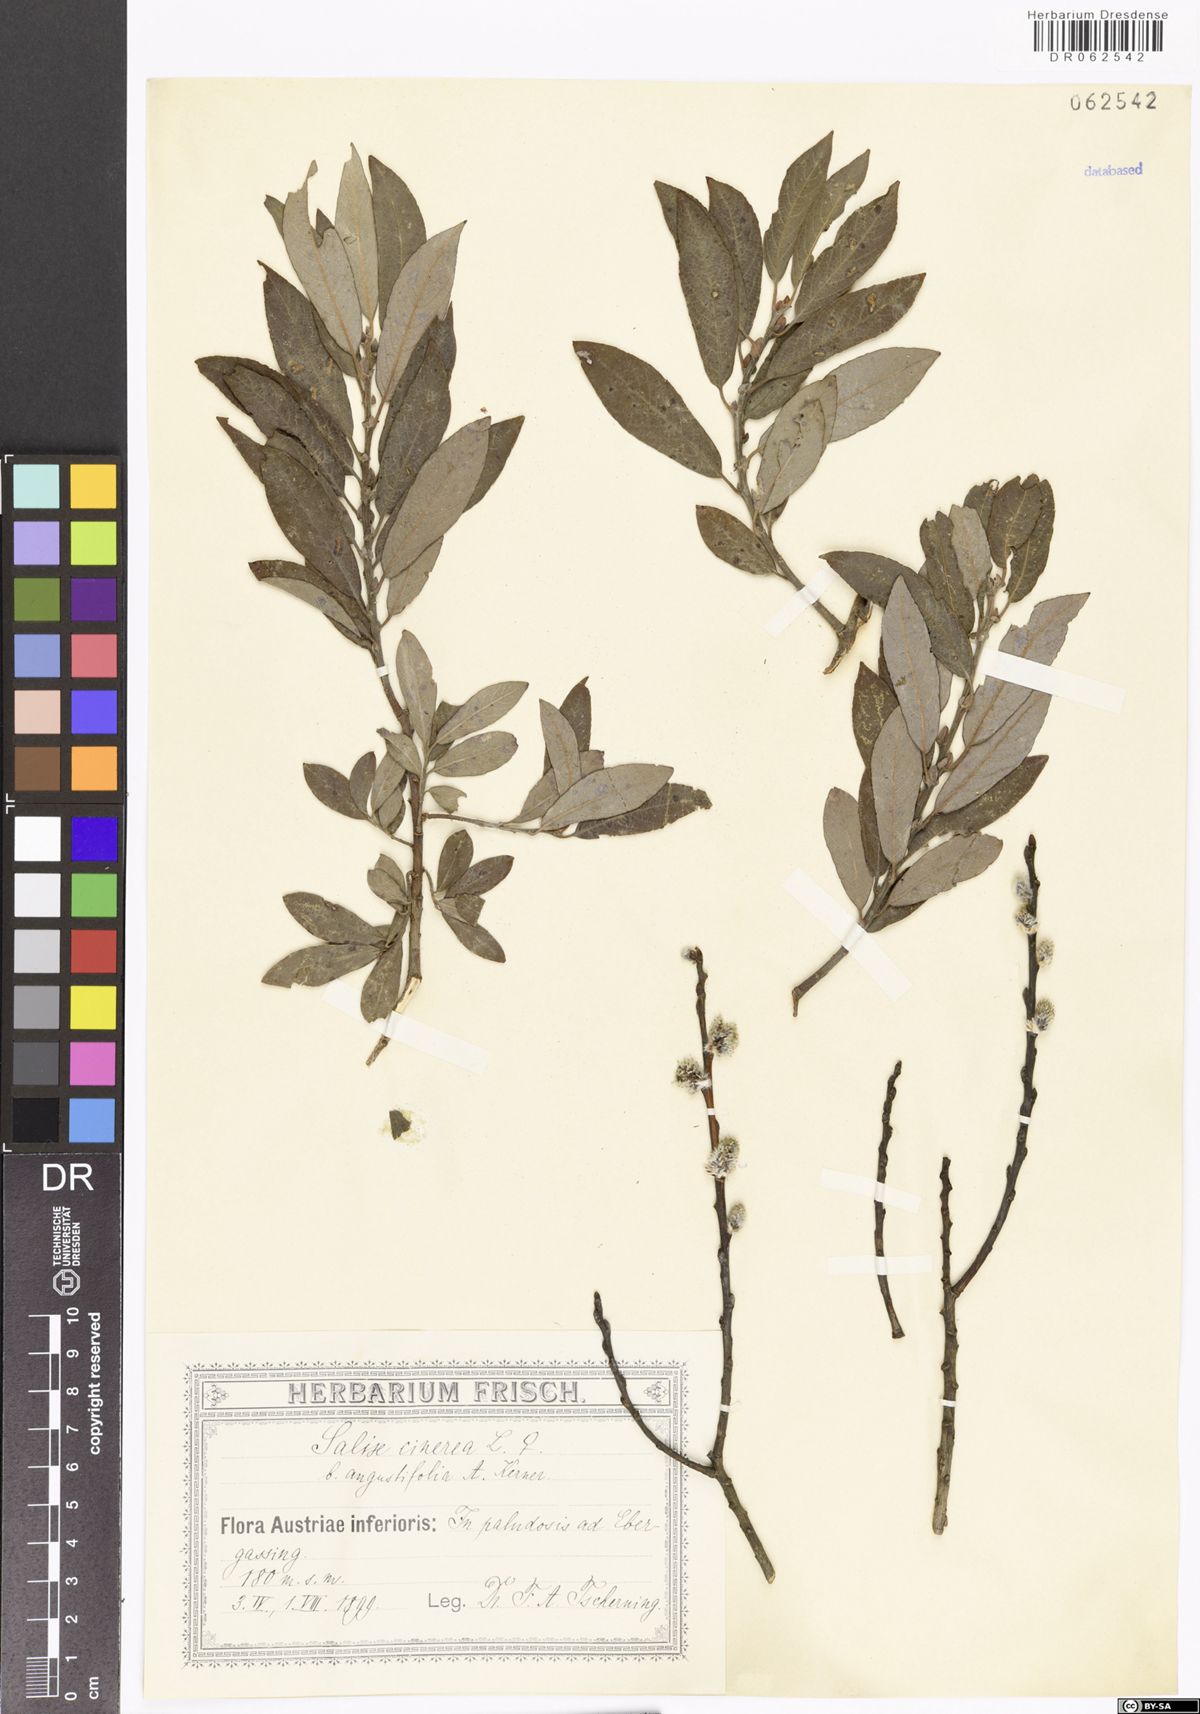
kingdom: Plantae
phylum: Tracheophyta
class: Magnoliopsida
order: Malpighiales
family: Salicaceae
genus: Salix
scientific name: Salix cinerea
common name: Common sallow
